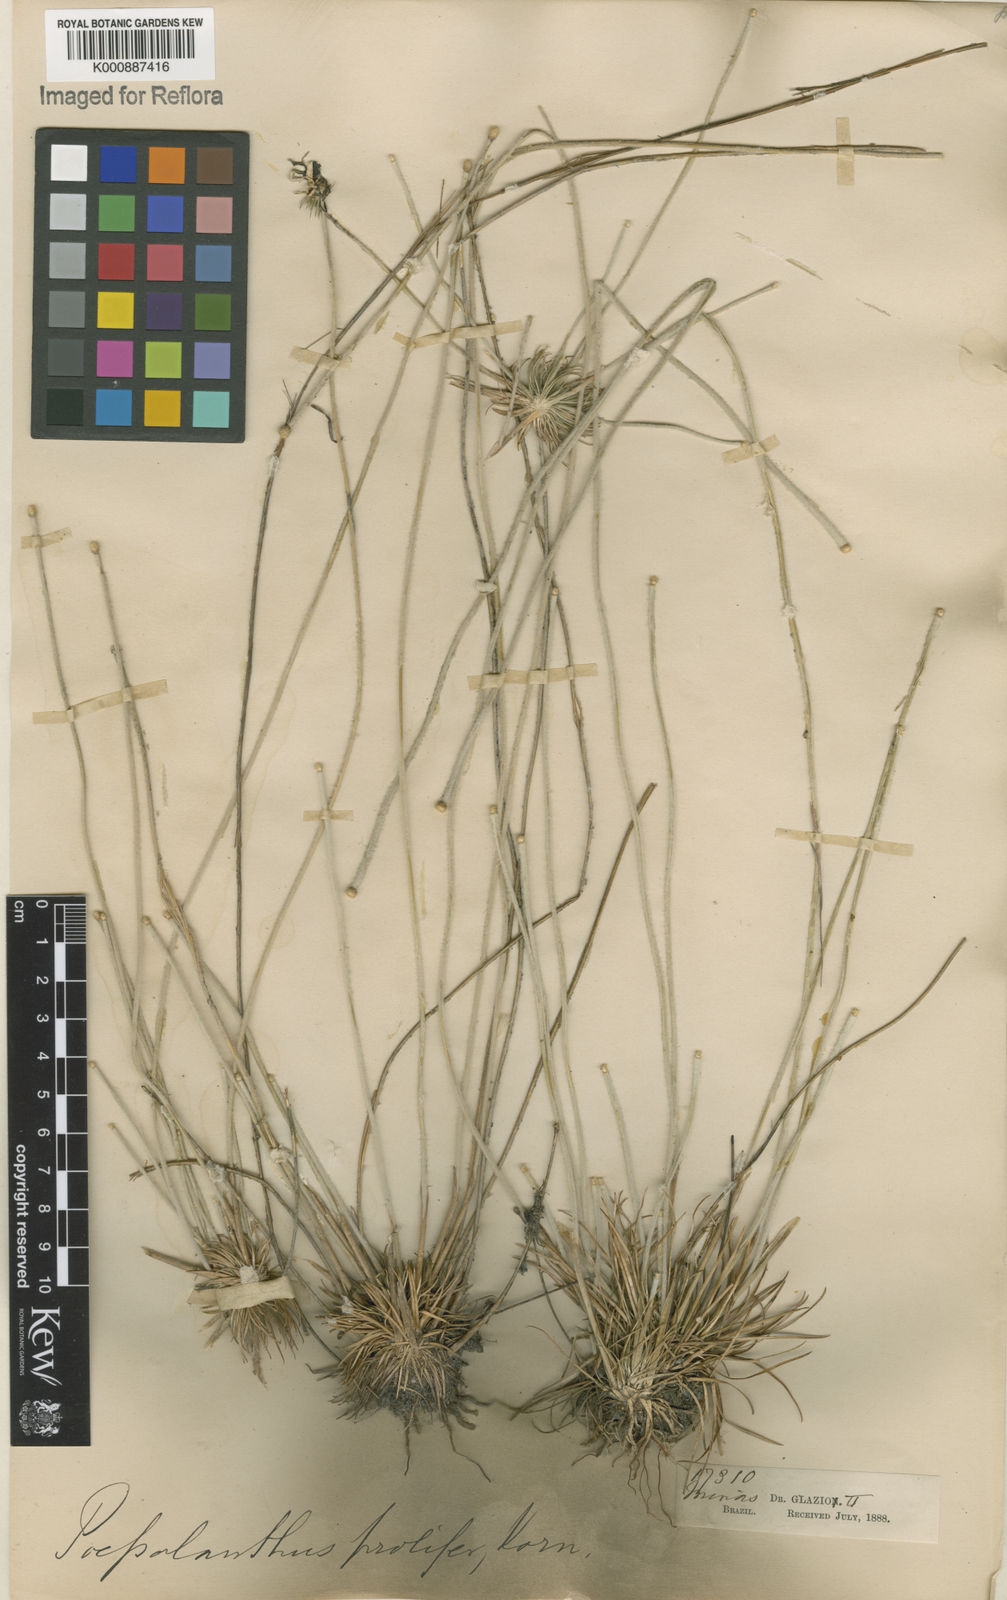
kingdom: Plantae
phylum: Tracheophyta
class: Liliopsida
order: Poales
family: Eriocaulaceae
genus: Leiothrix
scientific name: Leiothrix prolifera
